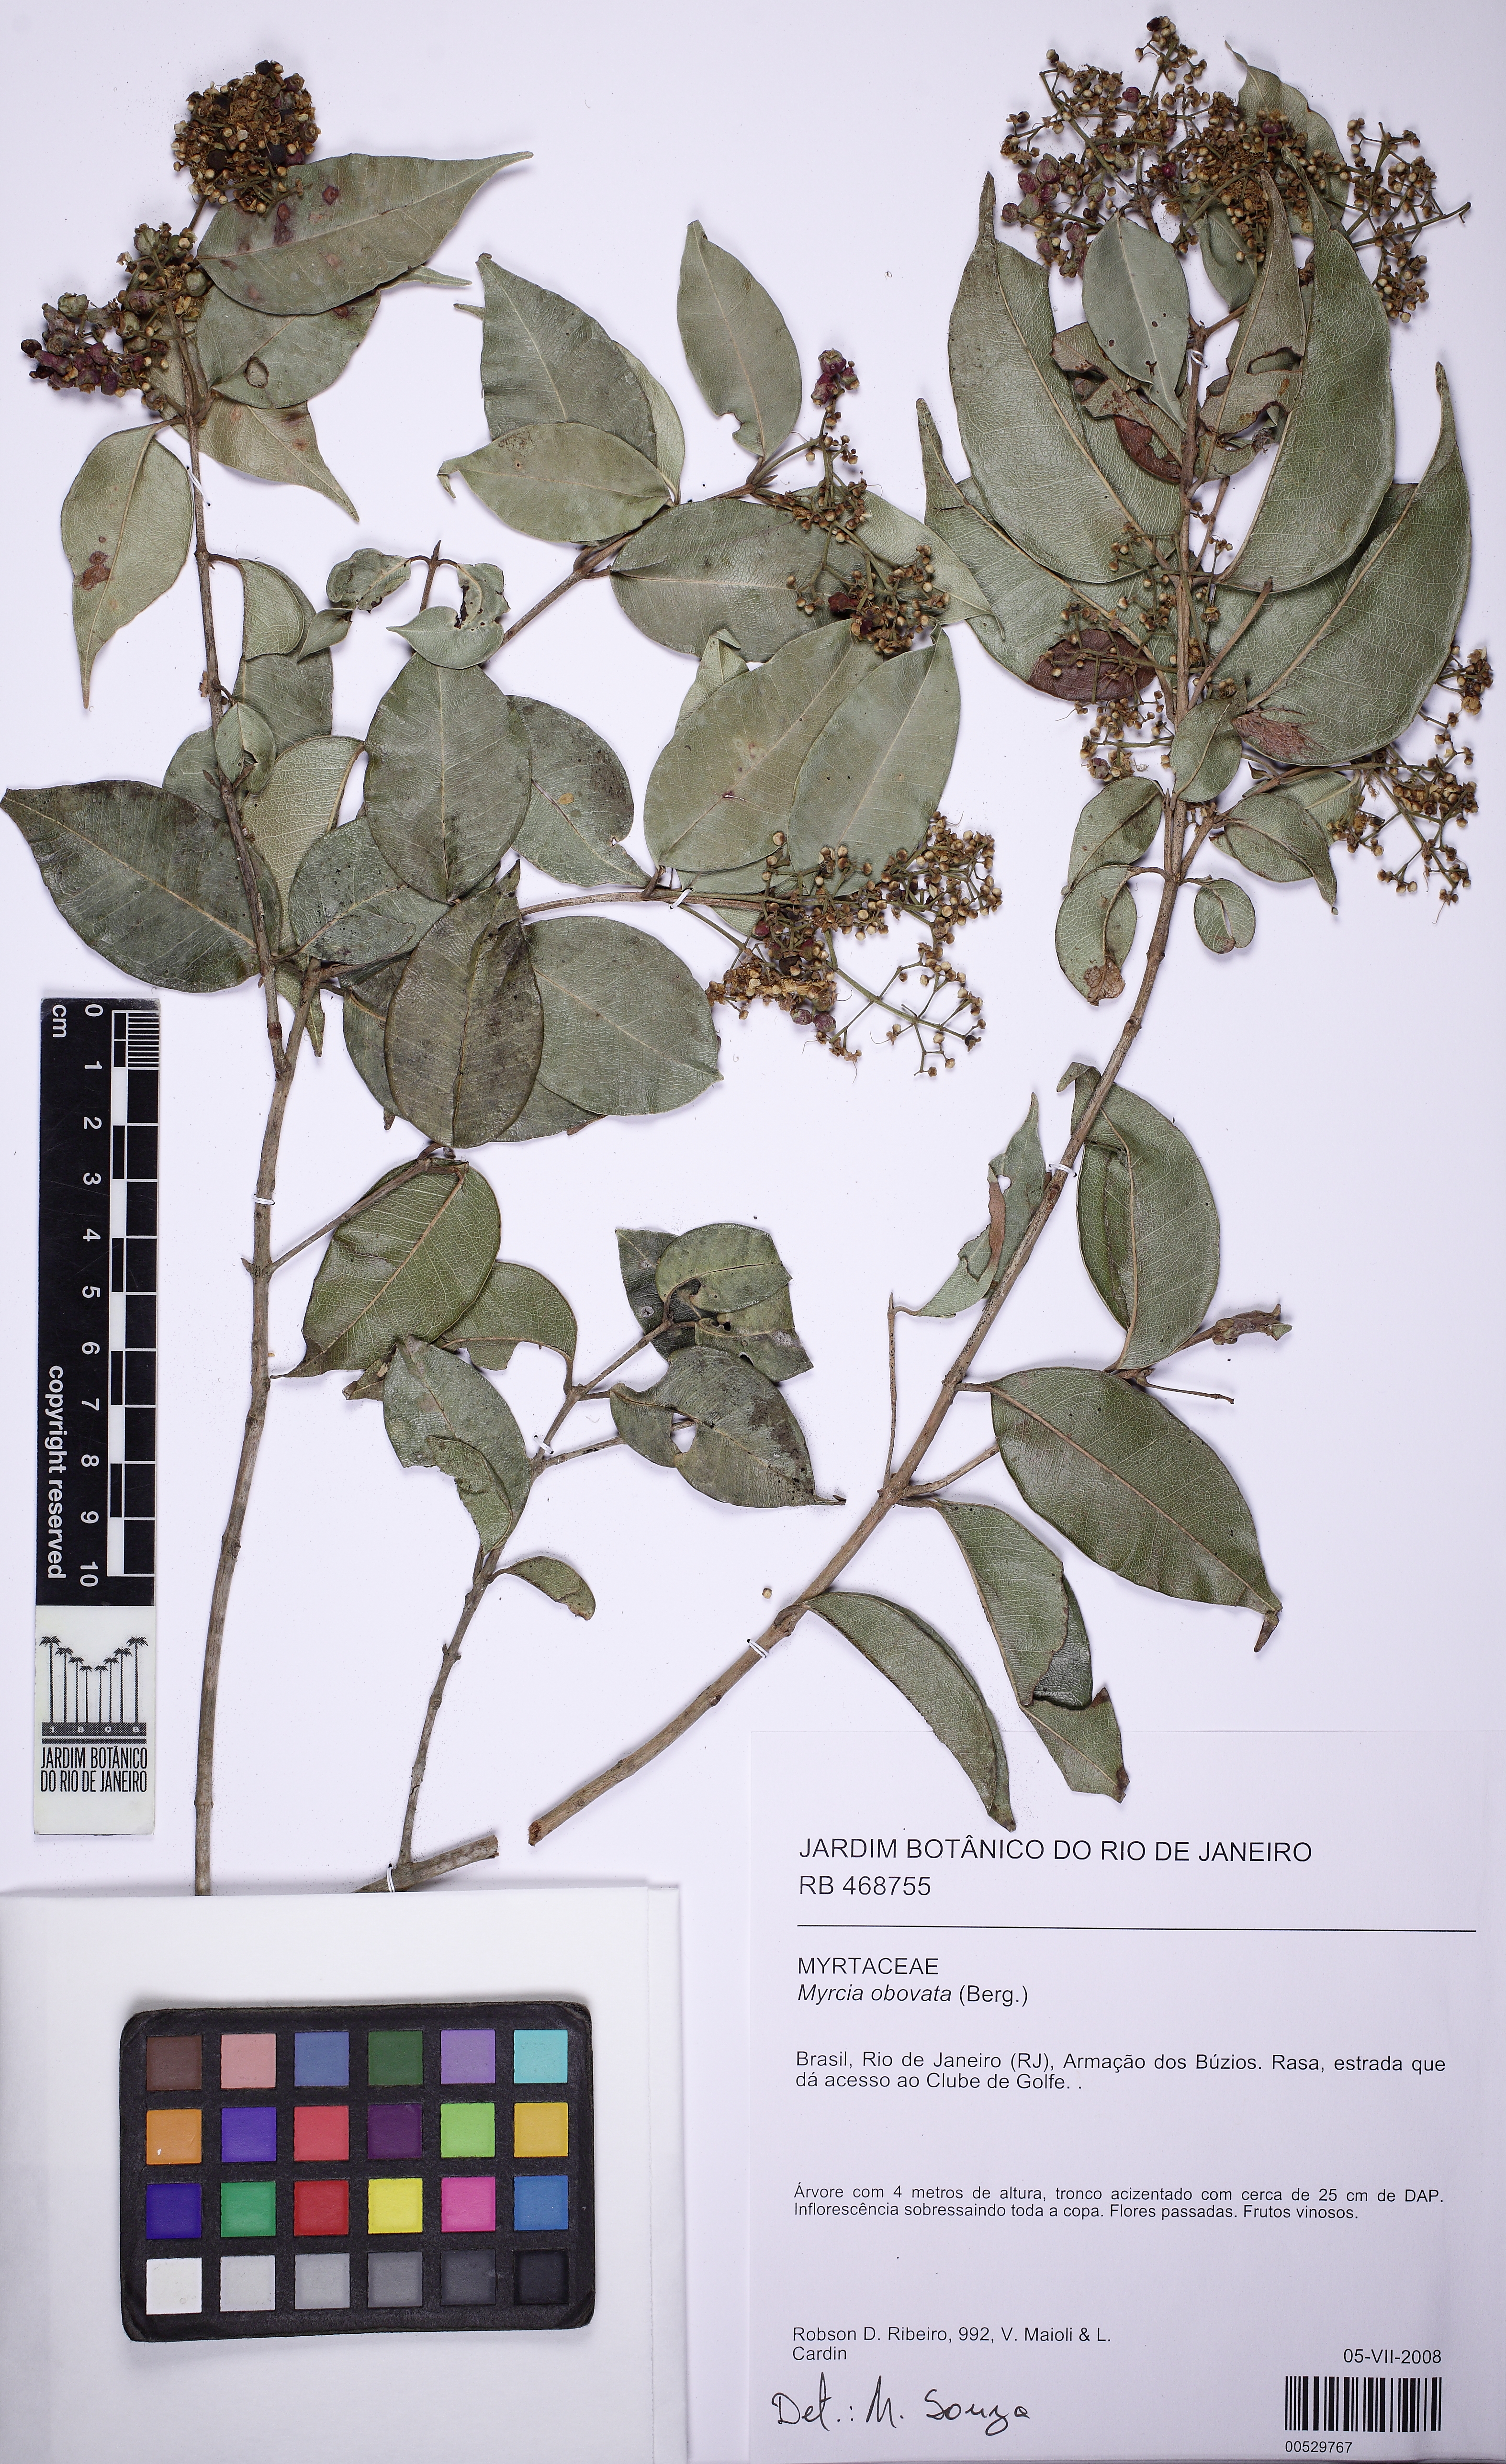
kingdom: Plantae
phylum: Tracheophyta
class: Magnoliopsida
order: Myrtales
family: Myrtaceae
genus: Myrcia
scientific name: Myrcia obovata
